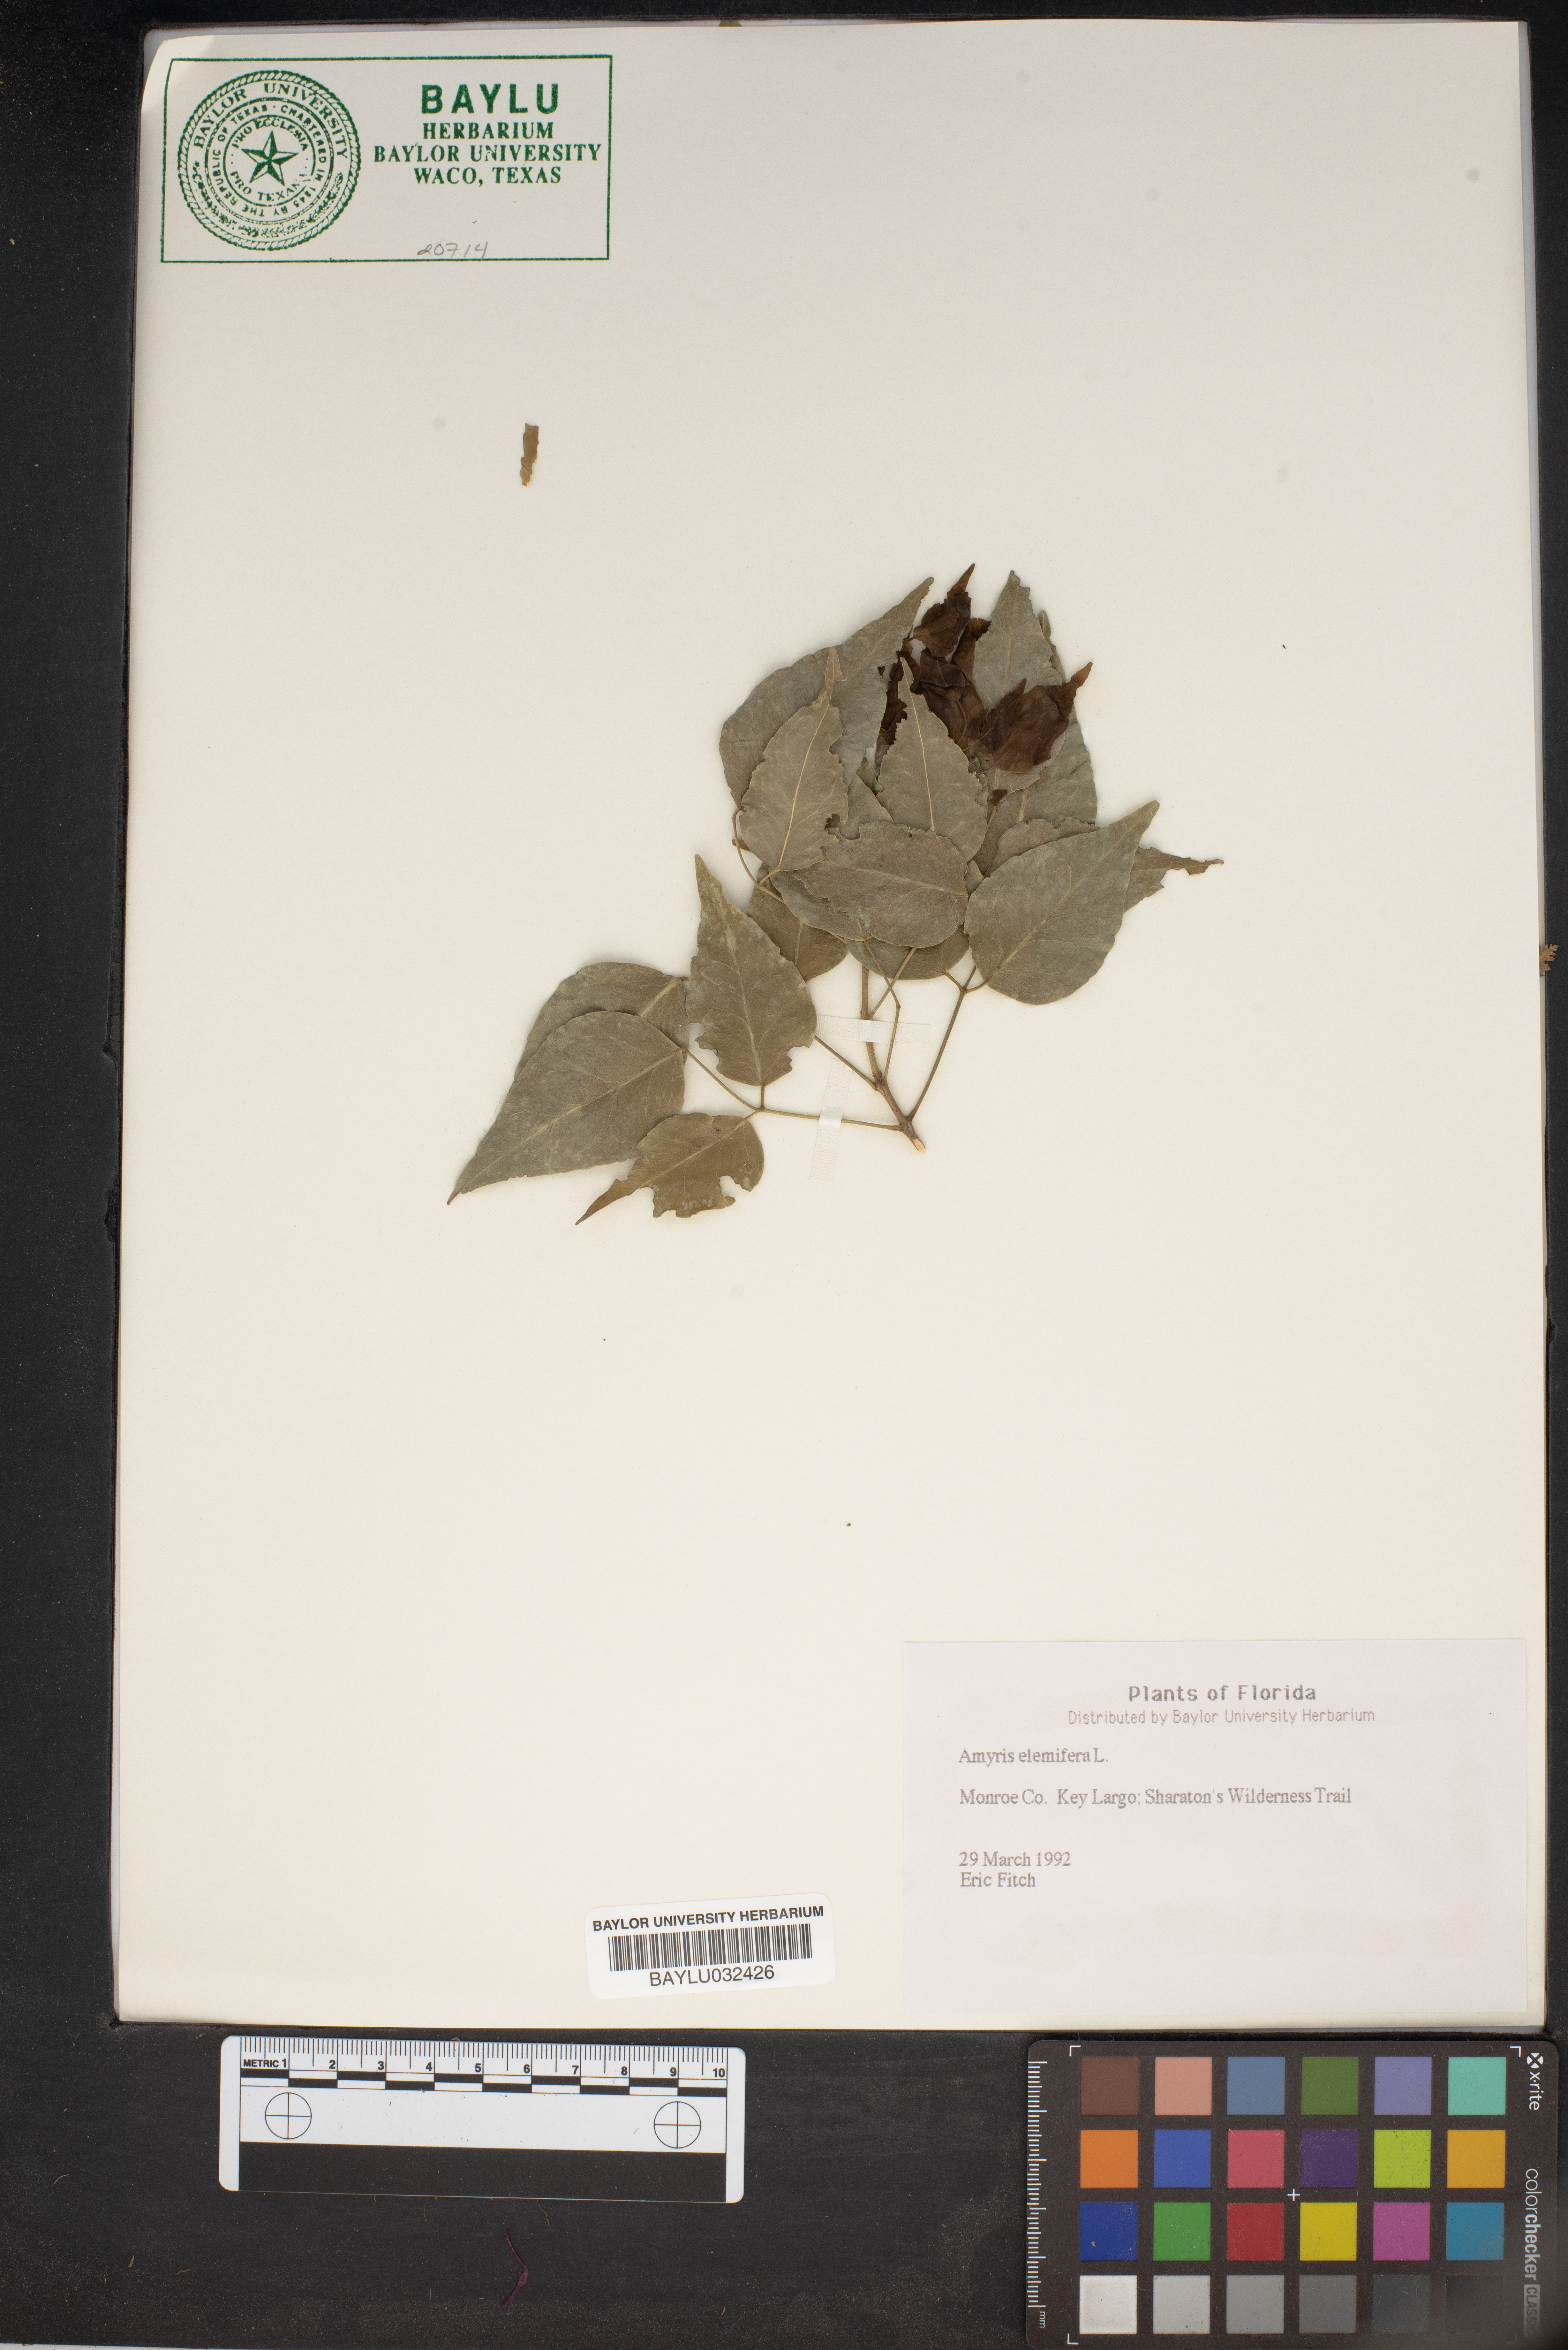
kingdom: Plantae
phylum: Tracheophyta
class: Magnoliopsida
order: Sapindales
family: Rutaceae
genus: Amyris
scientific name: Amyris elemifera
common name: Sea amyris
